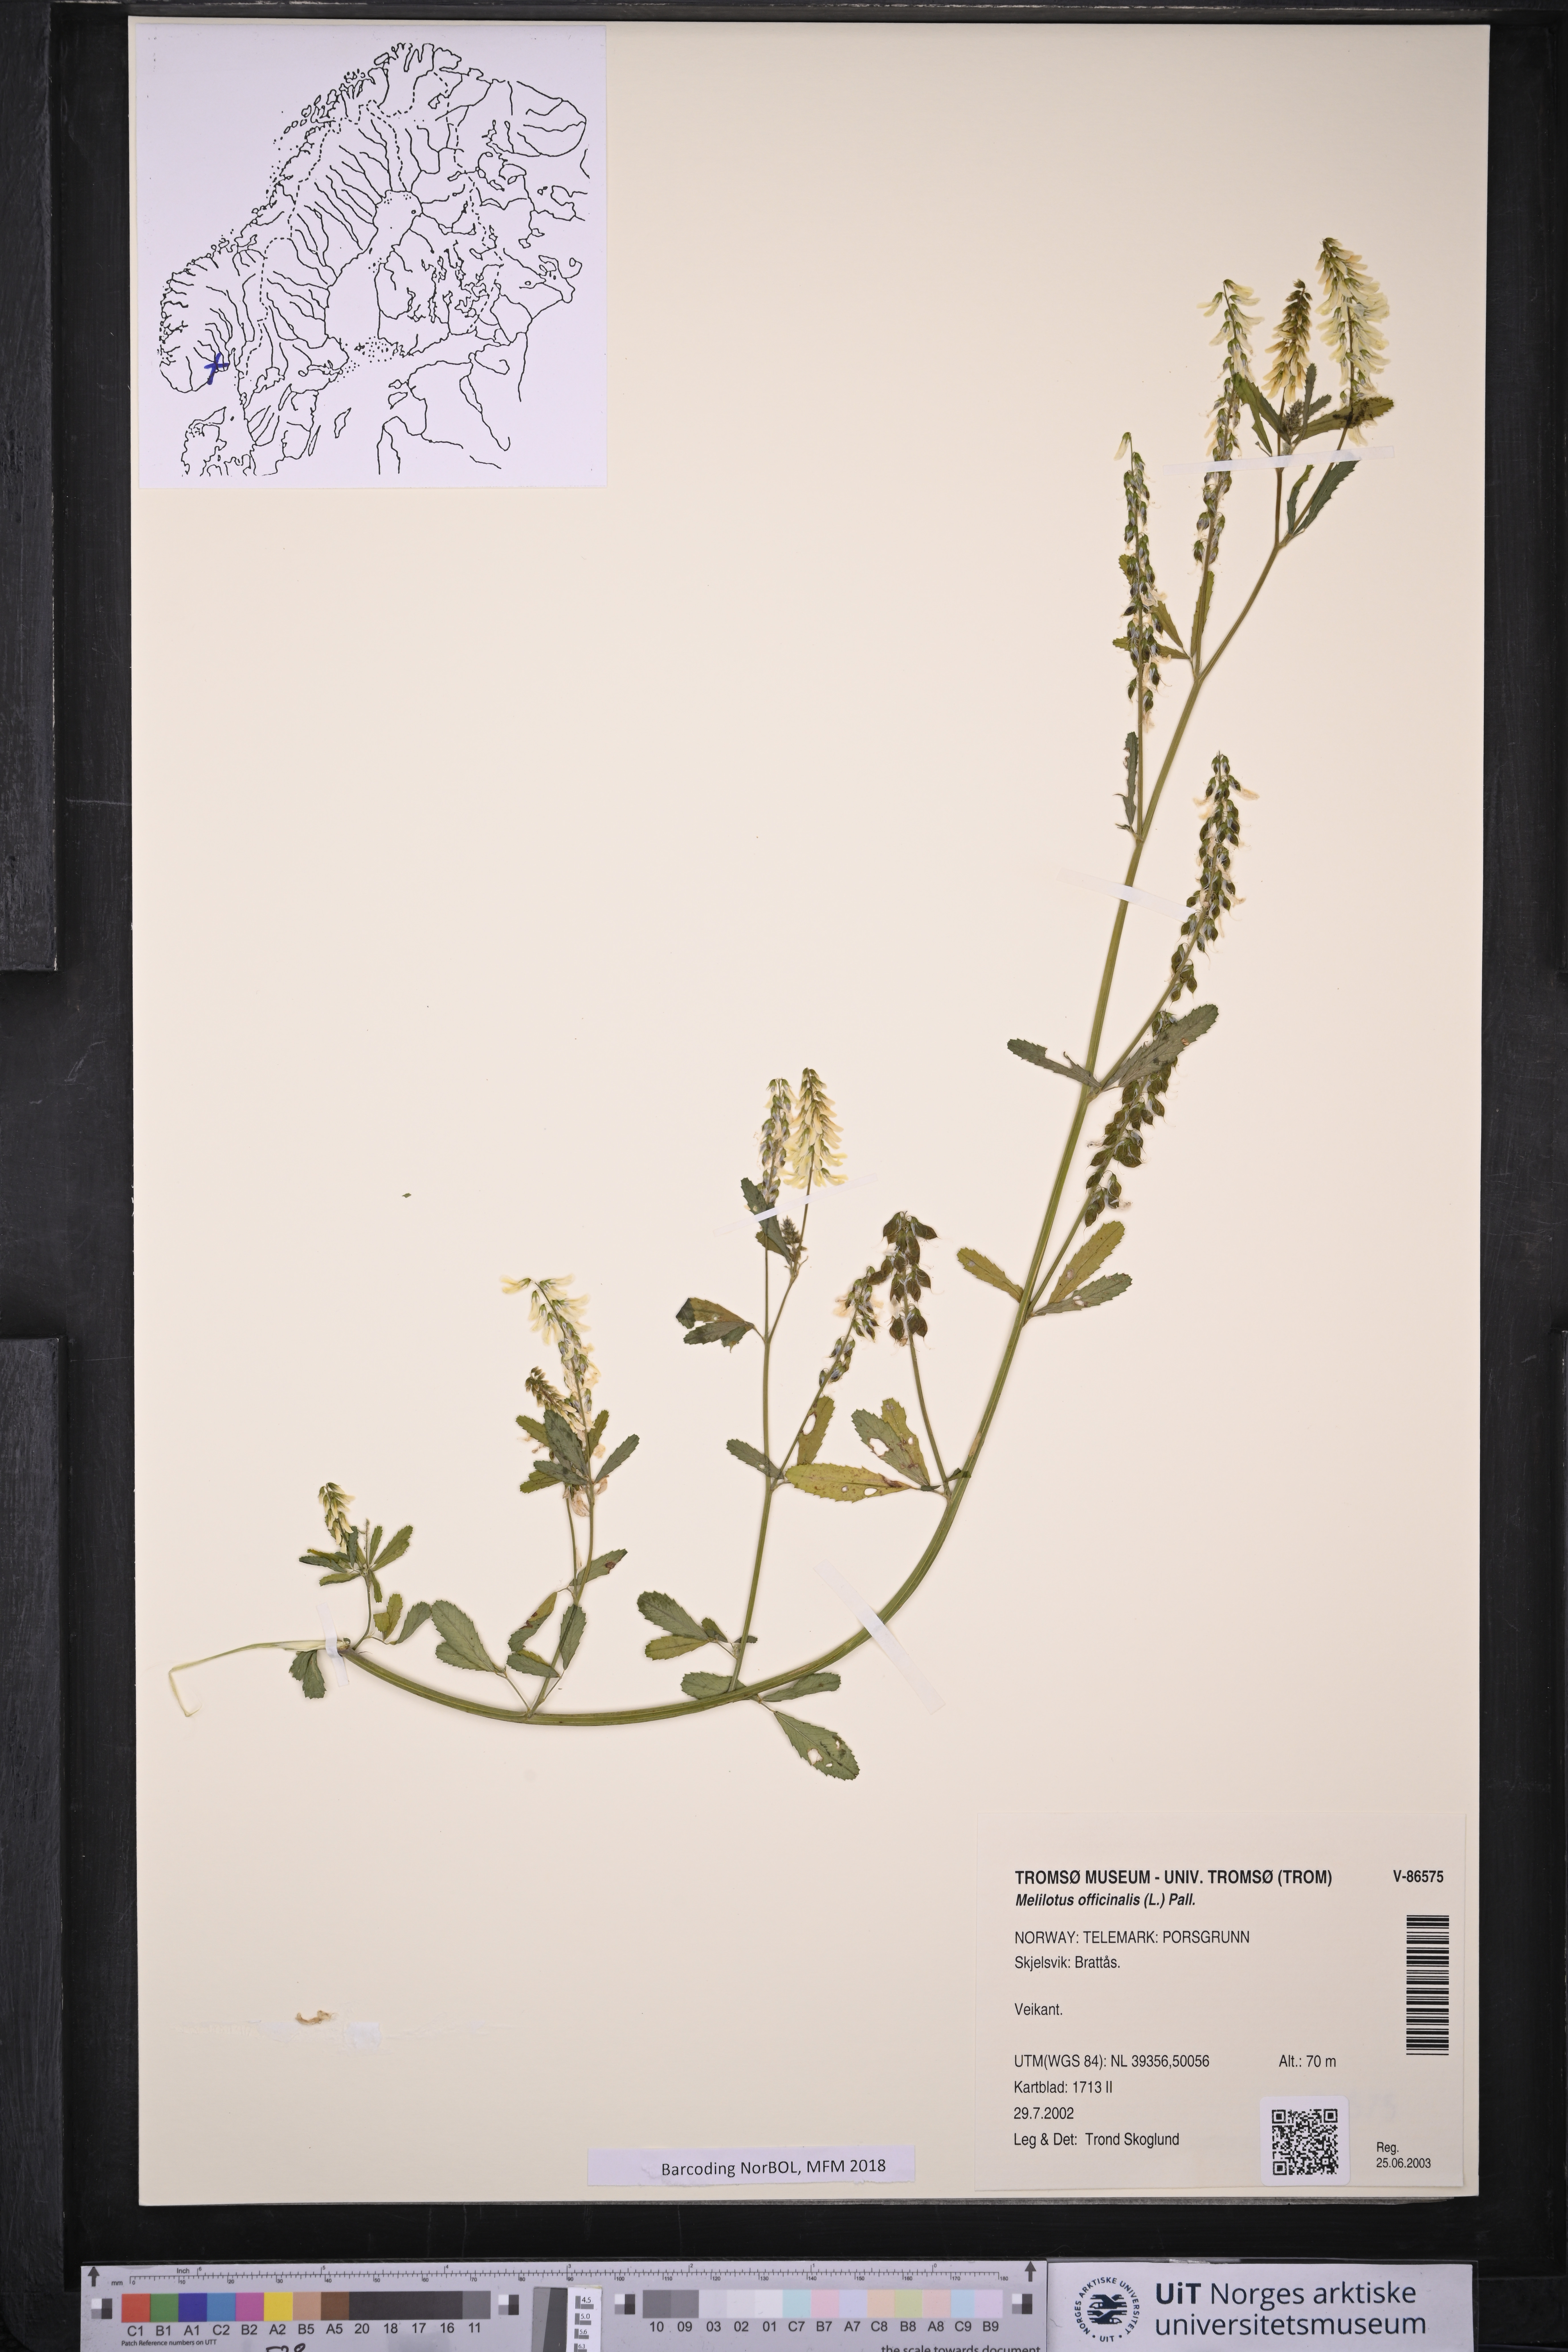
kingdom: Plantae
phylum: Tracheophyta
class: Magnoliopsida
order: Fabales
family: Fabaceae
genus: Melilotus
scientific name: Melilotus officinalis
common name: Sweetclover
